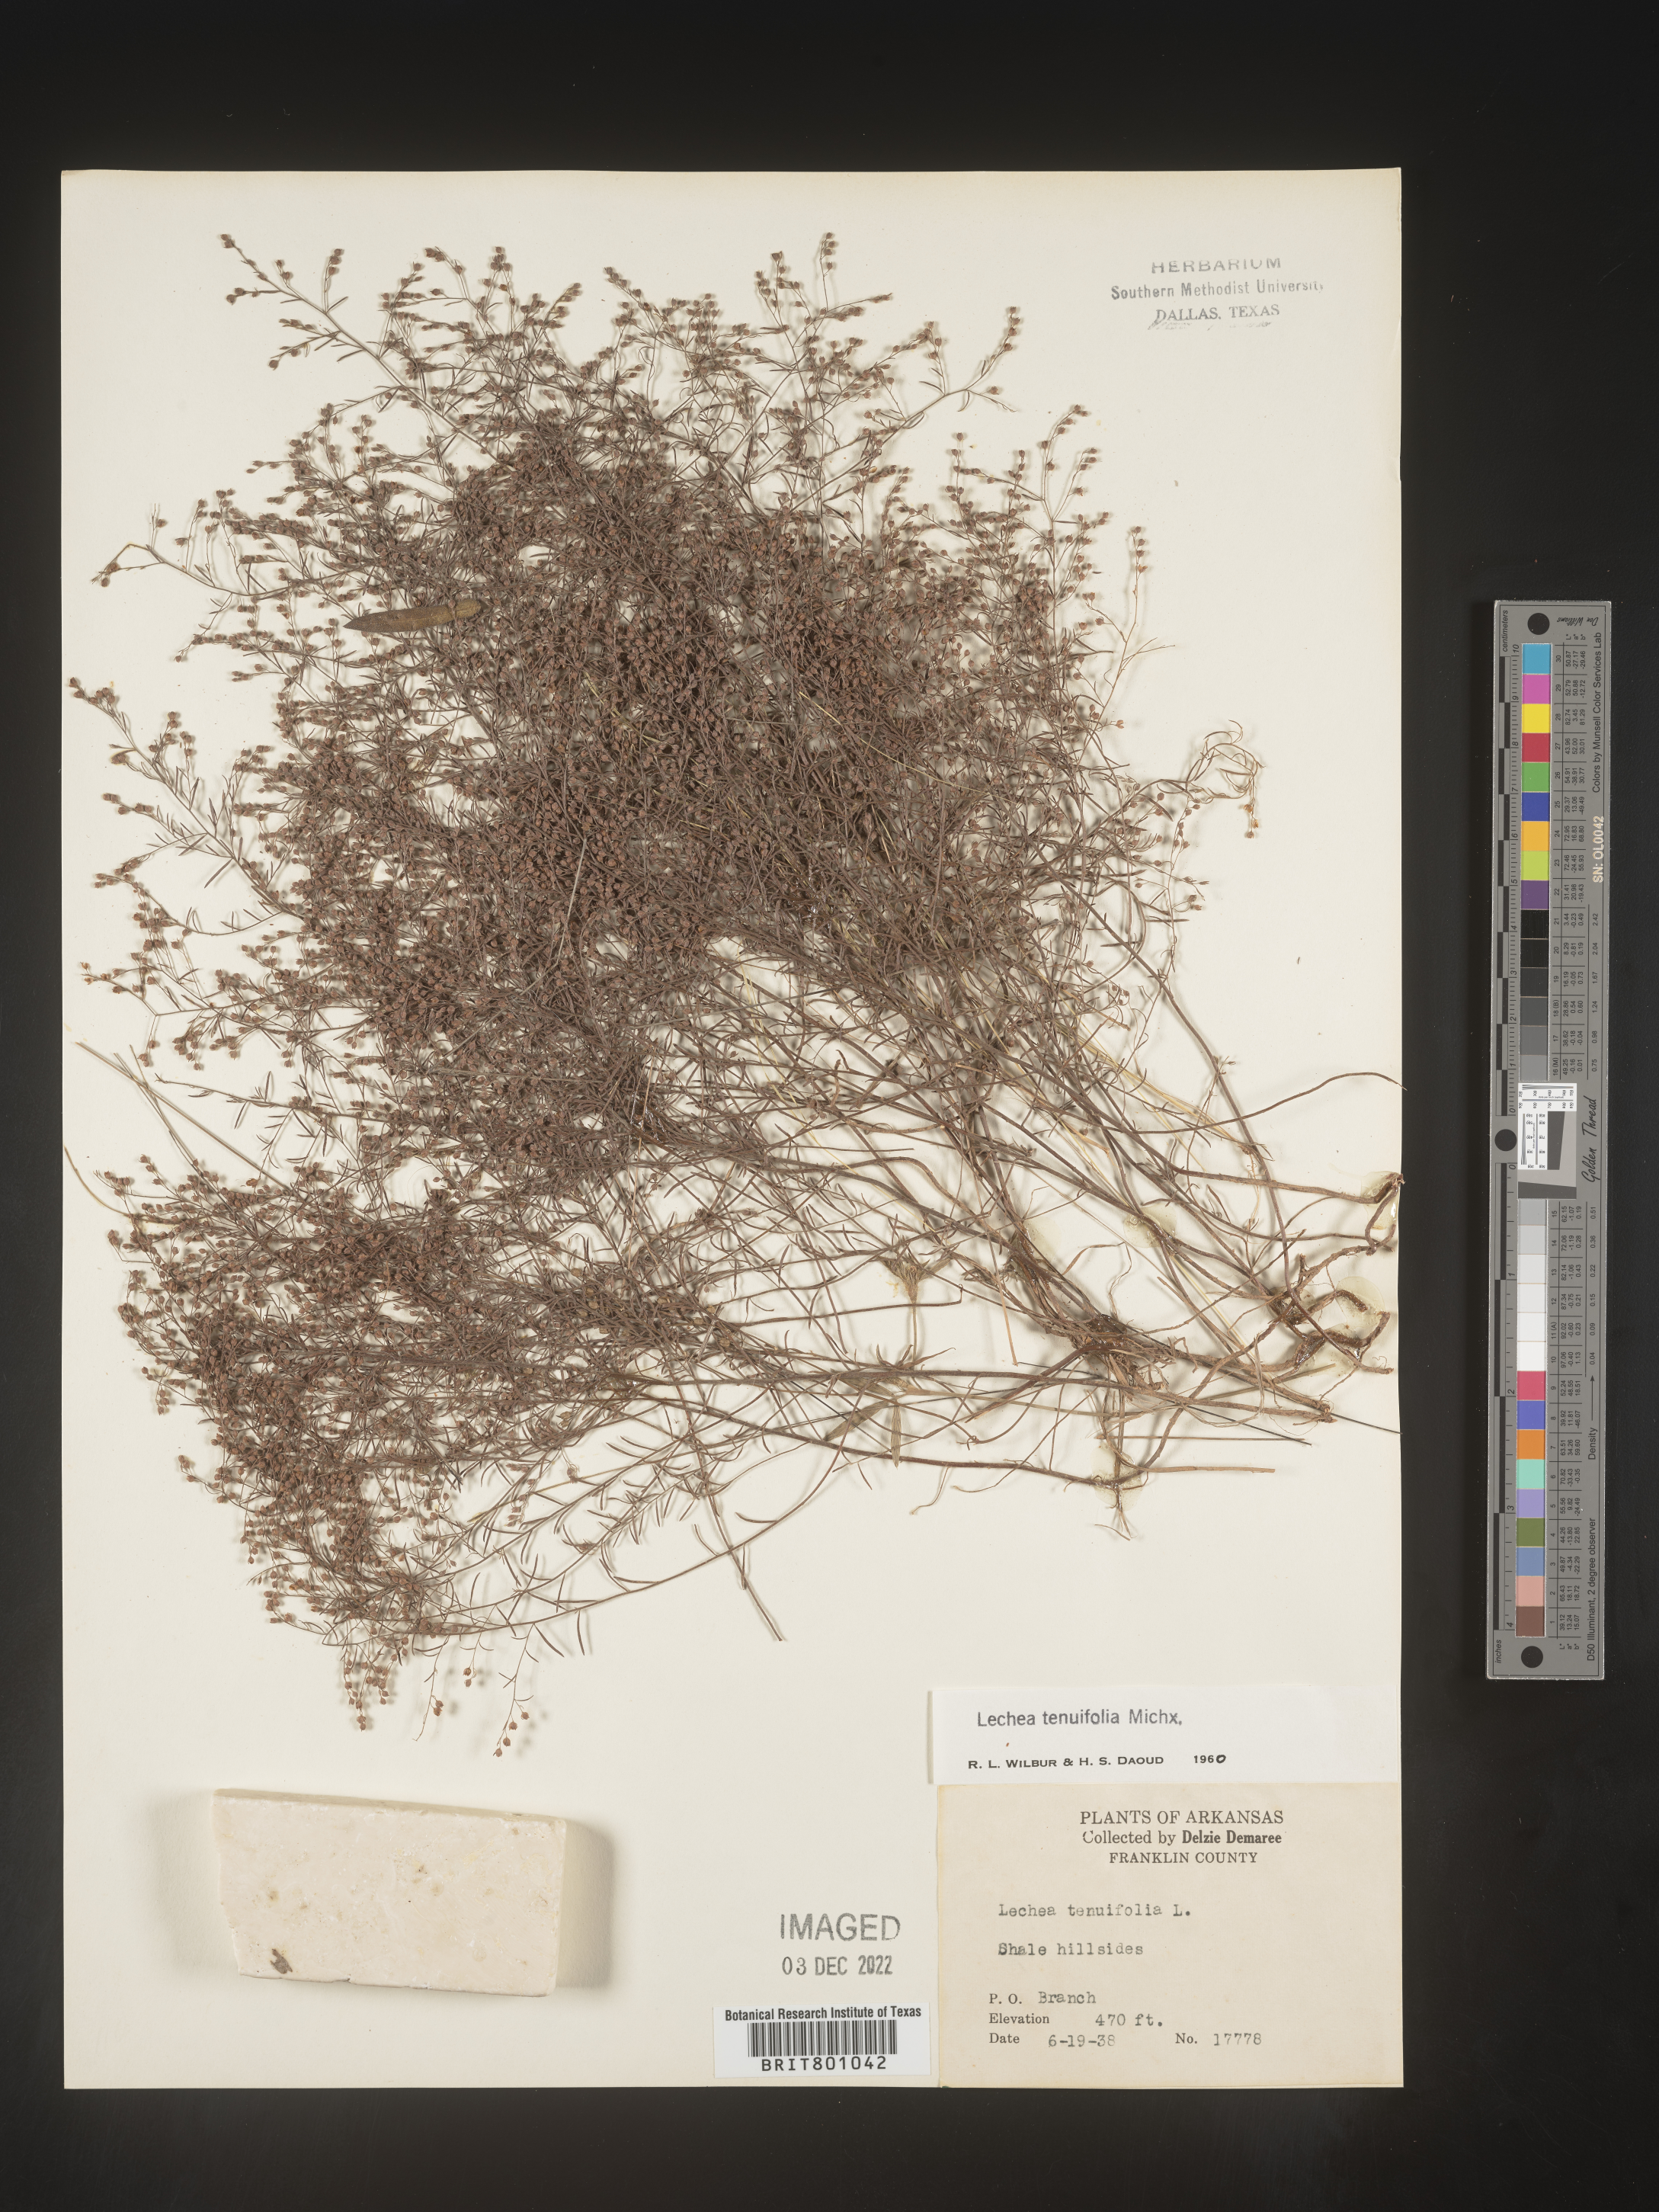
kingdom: Plantae
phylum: Tracheophyta
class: Magnoliopsida
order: Malvales
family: Cistaceae
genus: Lechea
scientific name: Lechea tenuifolia
